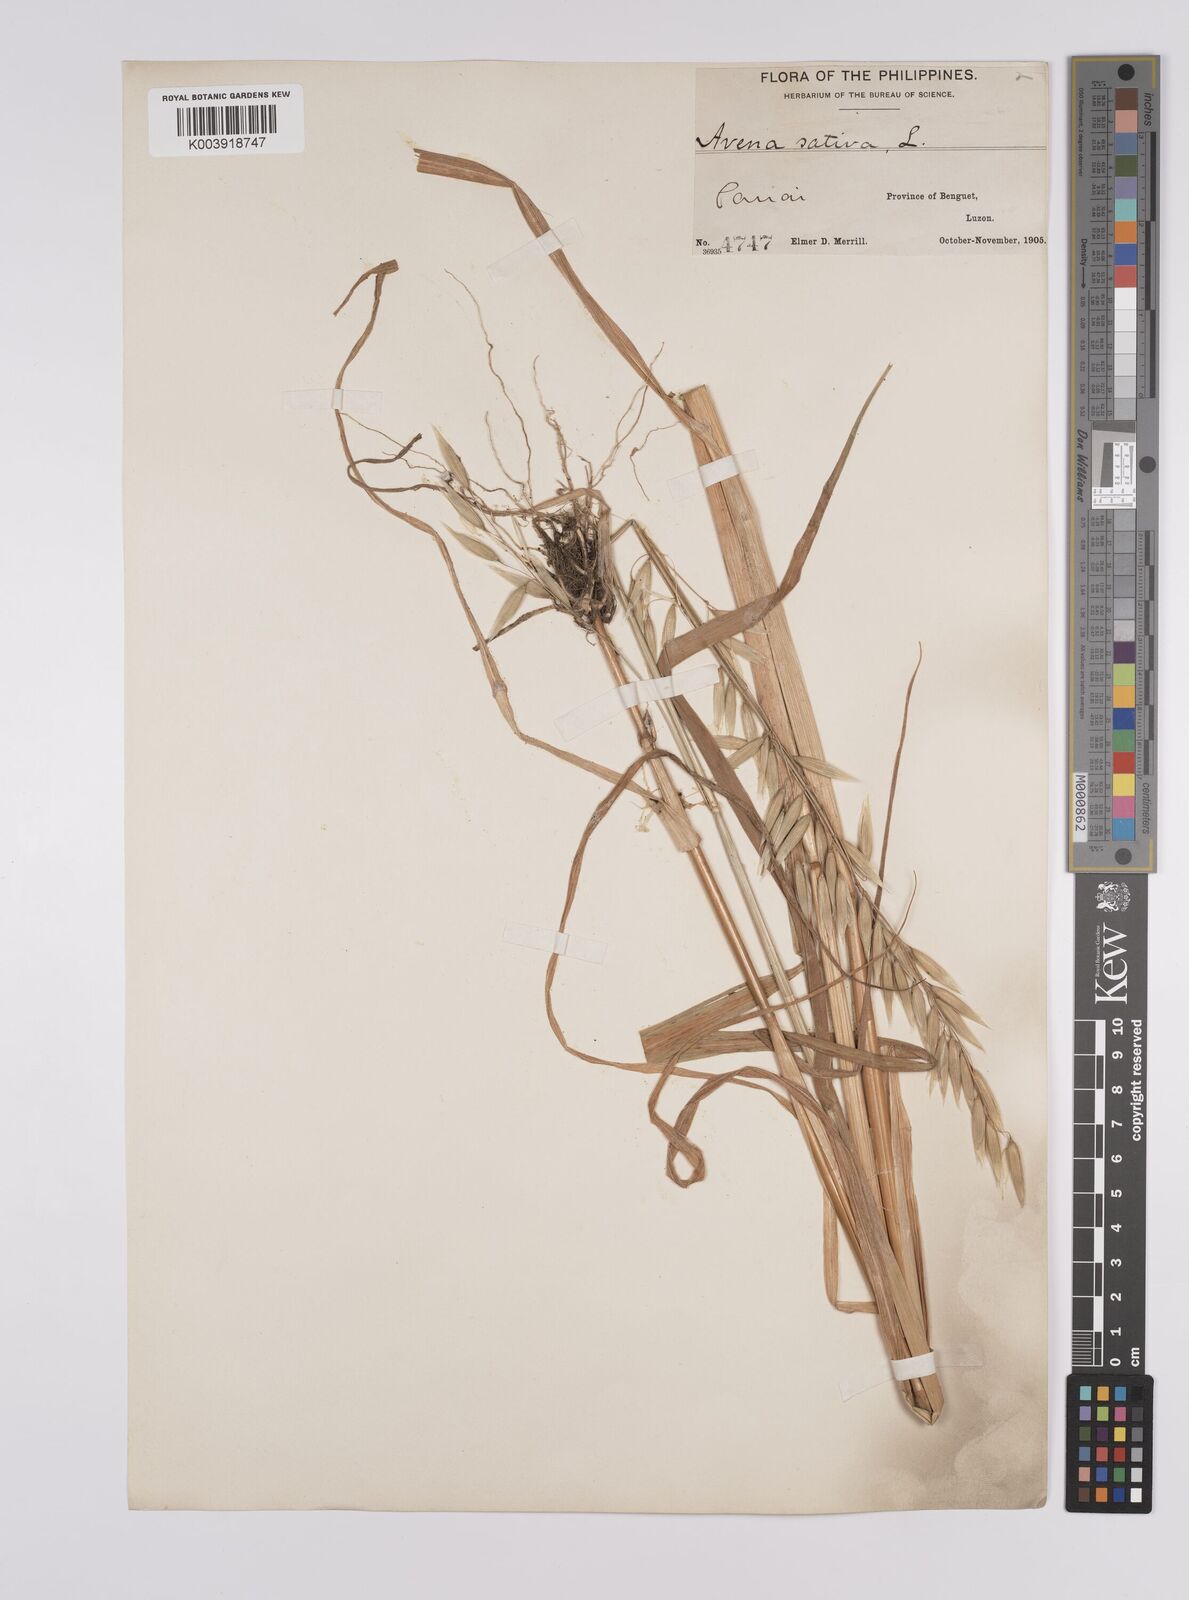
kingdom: Plantae
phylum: Tracheophyta
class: Liliopsida
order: Poales
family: Poaceae
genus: Avena
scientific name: Avena sativa
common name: Oat
